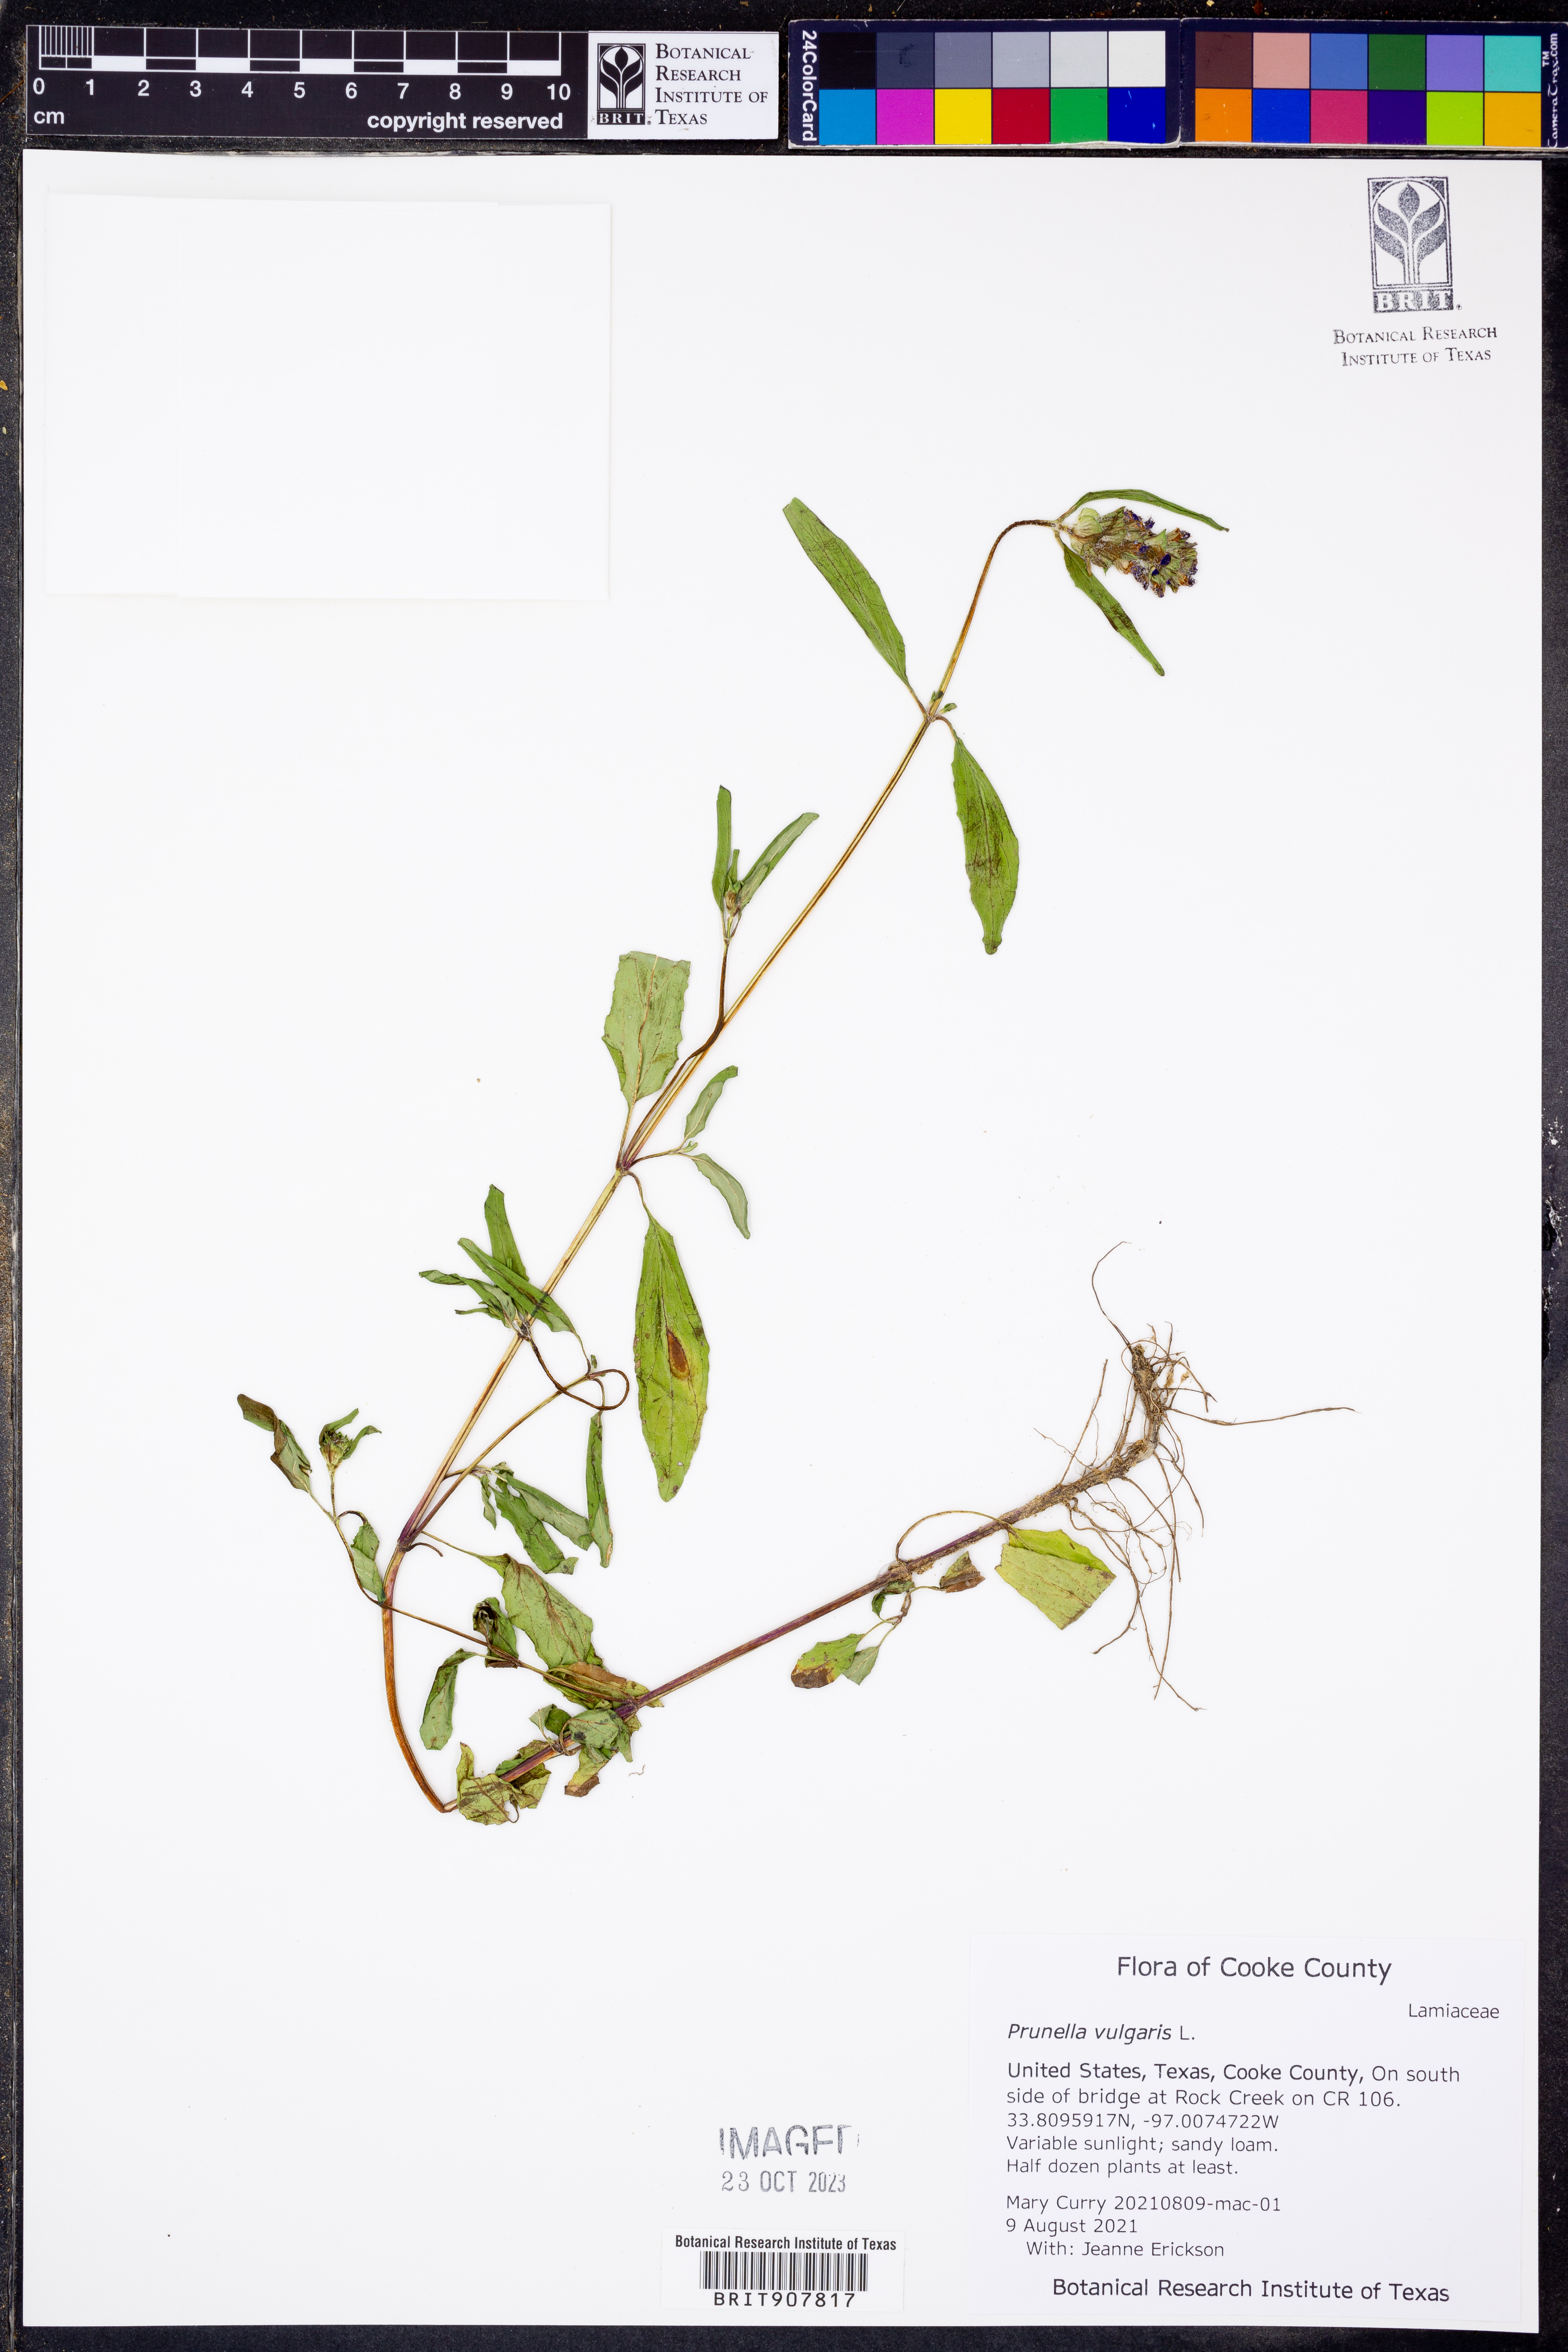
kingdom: Plantae
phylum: Tracheophyta
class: Magnoliopsida
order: Lamiales
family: Lamiaceae
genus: Prunella
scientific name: Prunella vulgaris
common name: Heal-all
